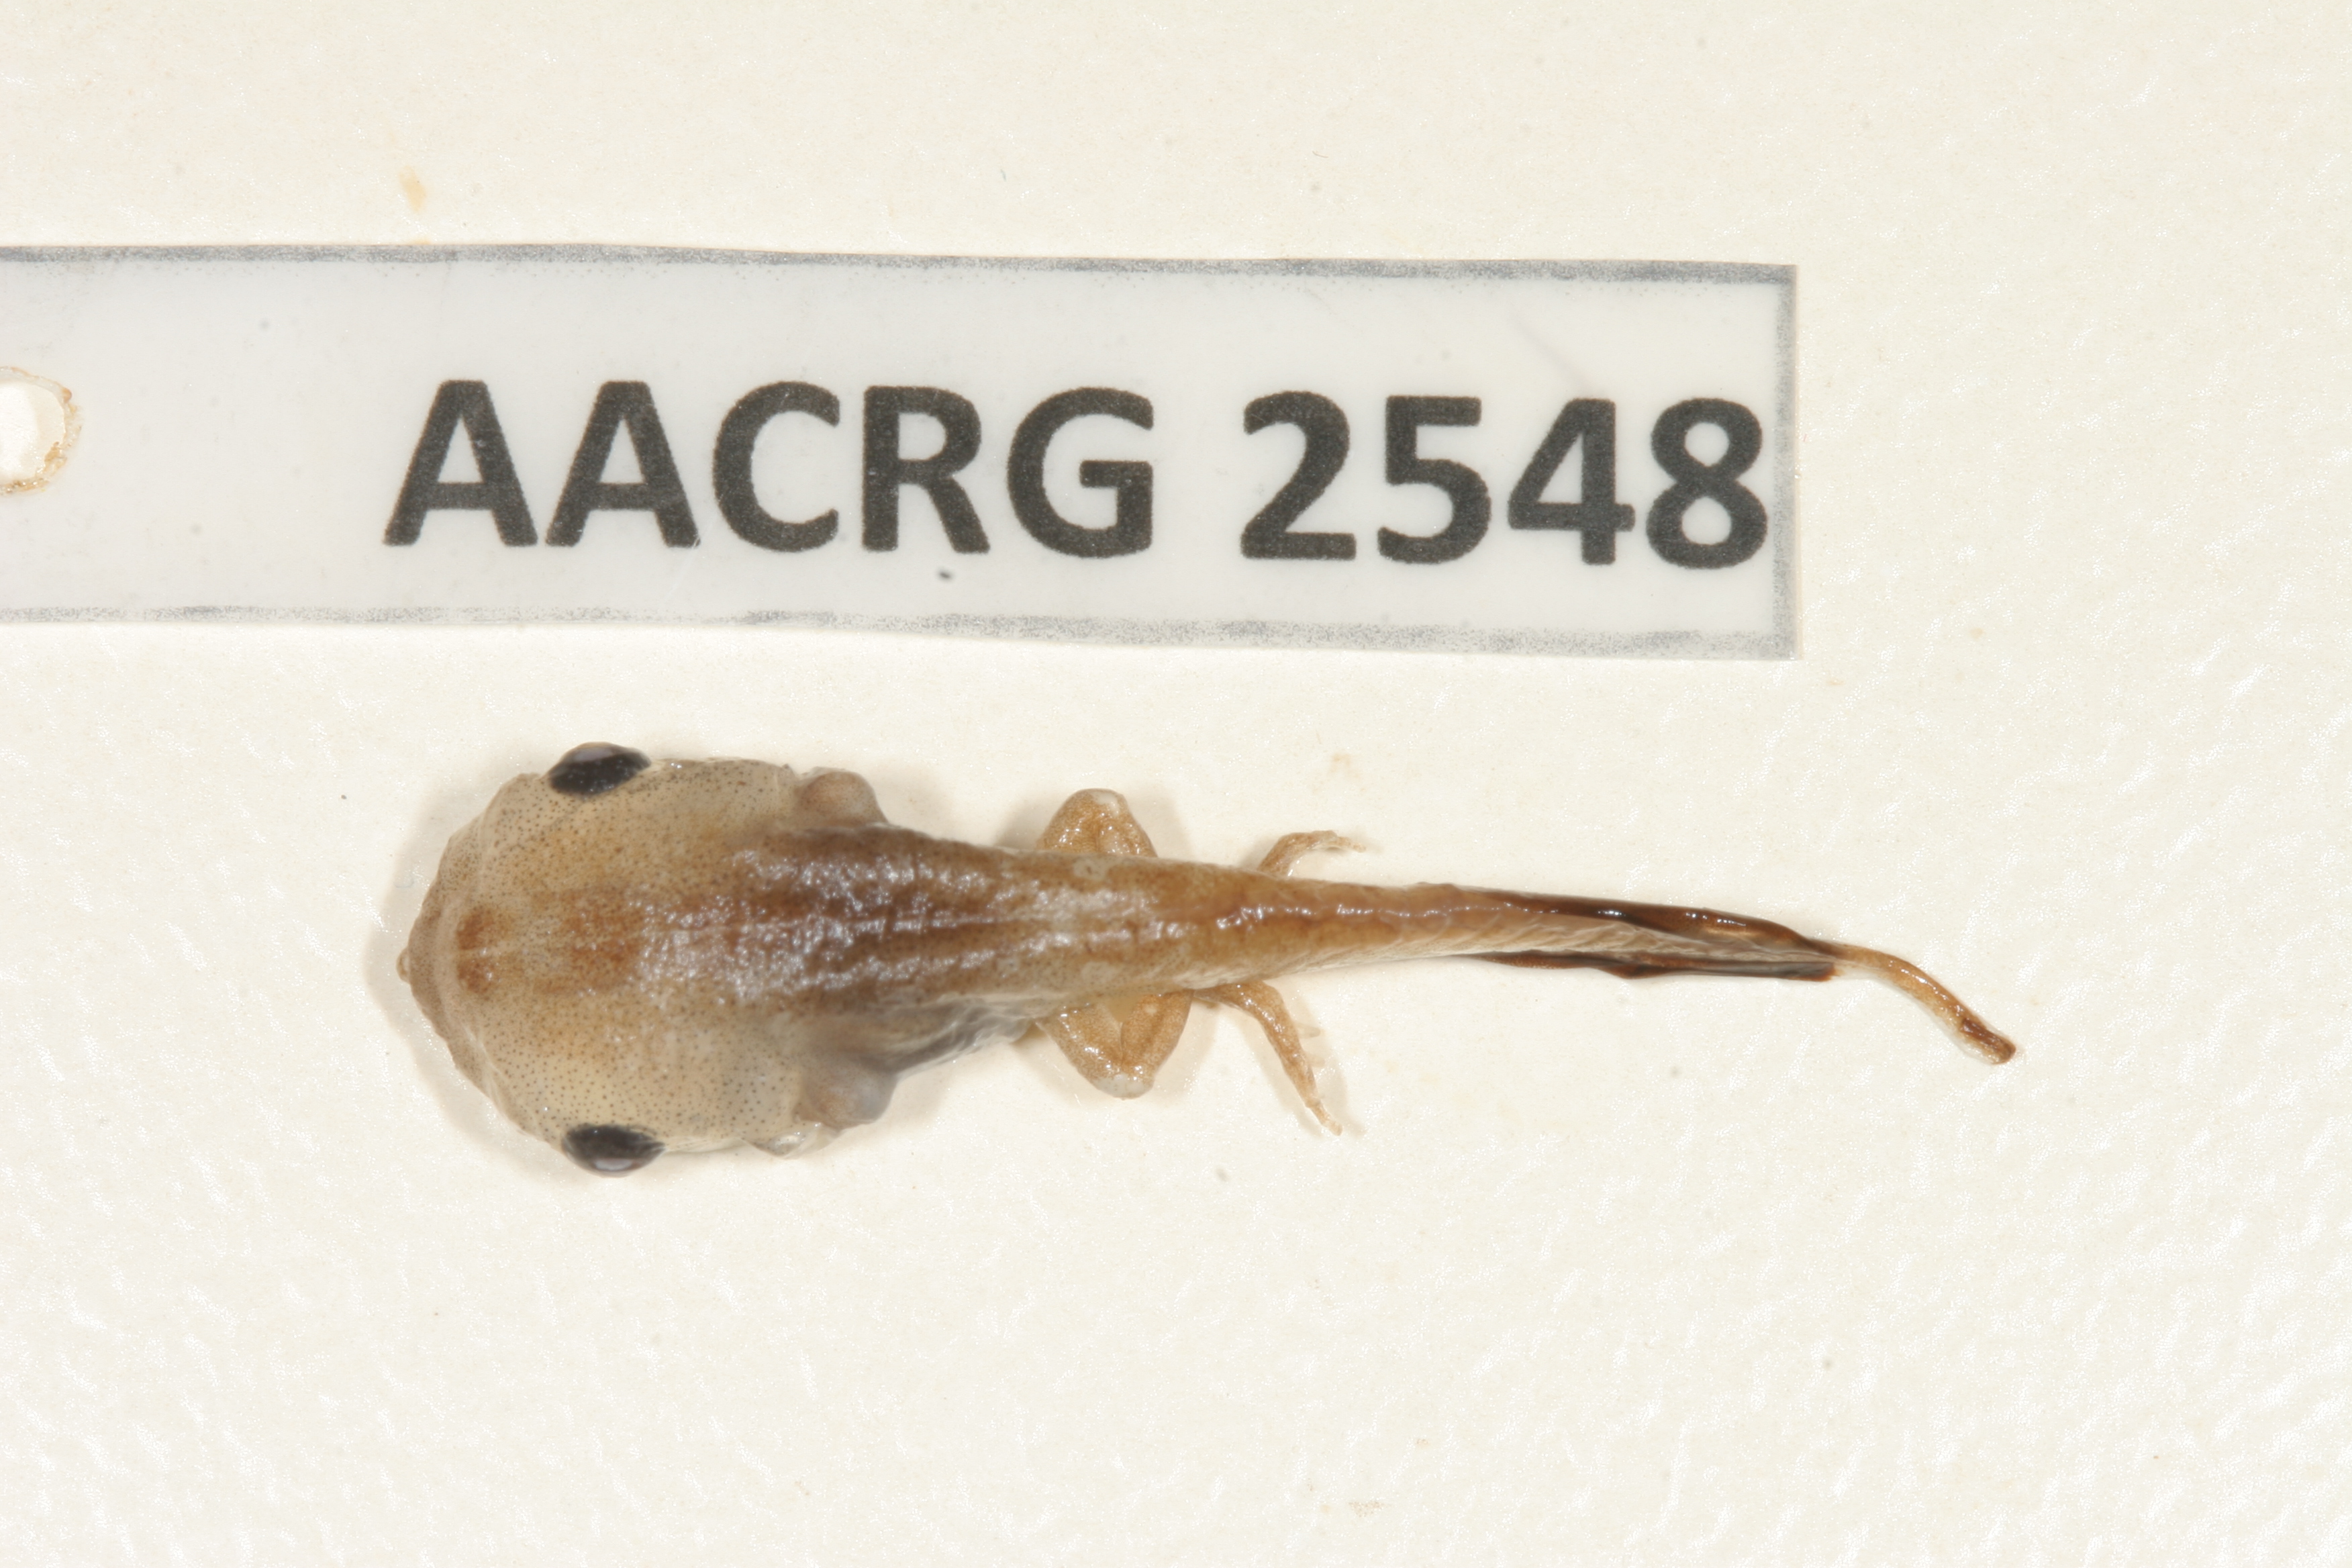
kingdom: Animalia
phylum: Chordata
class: Amphibia
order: Anura
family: Microhylidae
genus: Phrynomantis
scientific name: Phrynomantis bifasciatus
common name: Banded rubber frog
